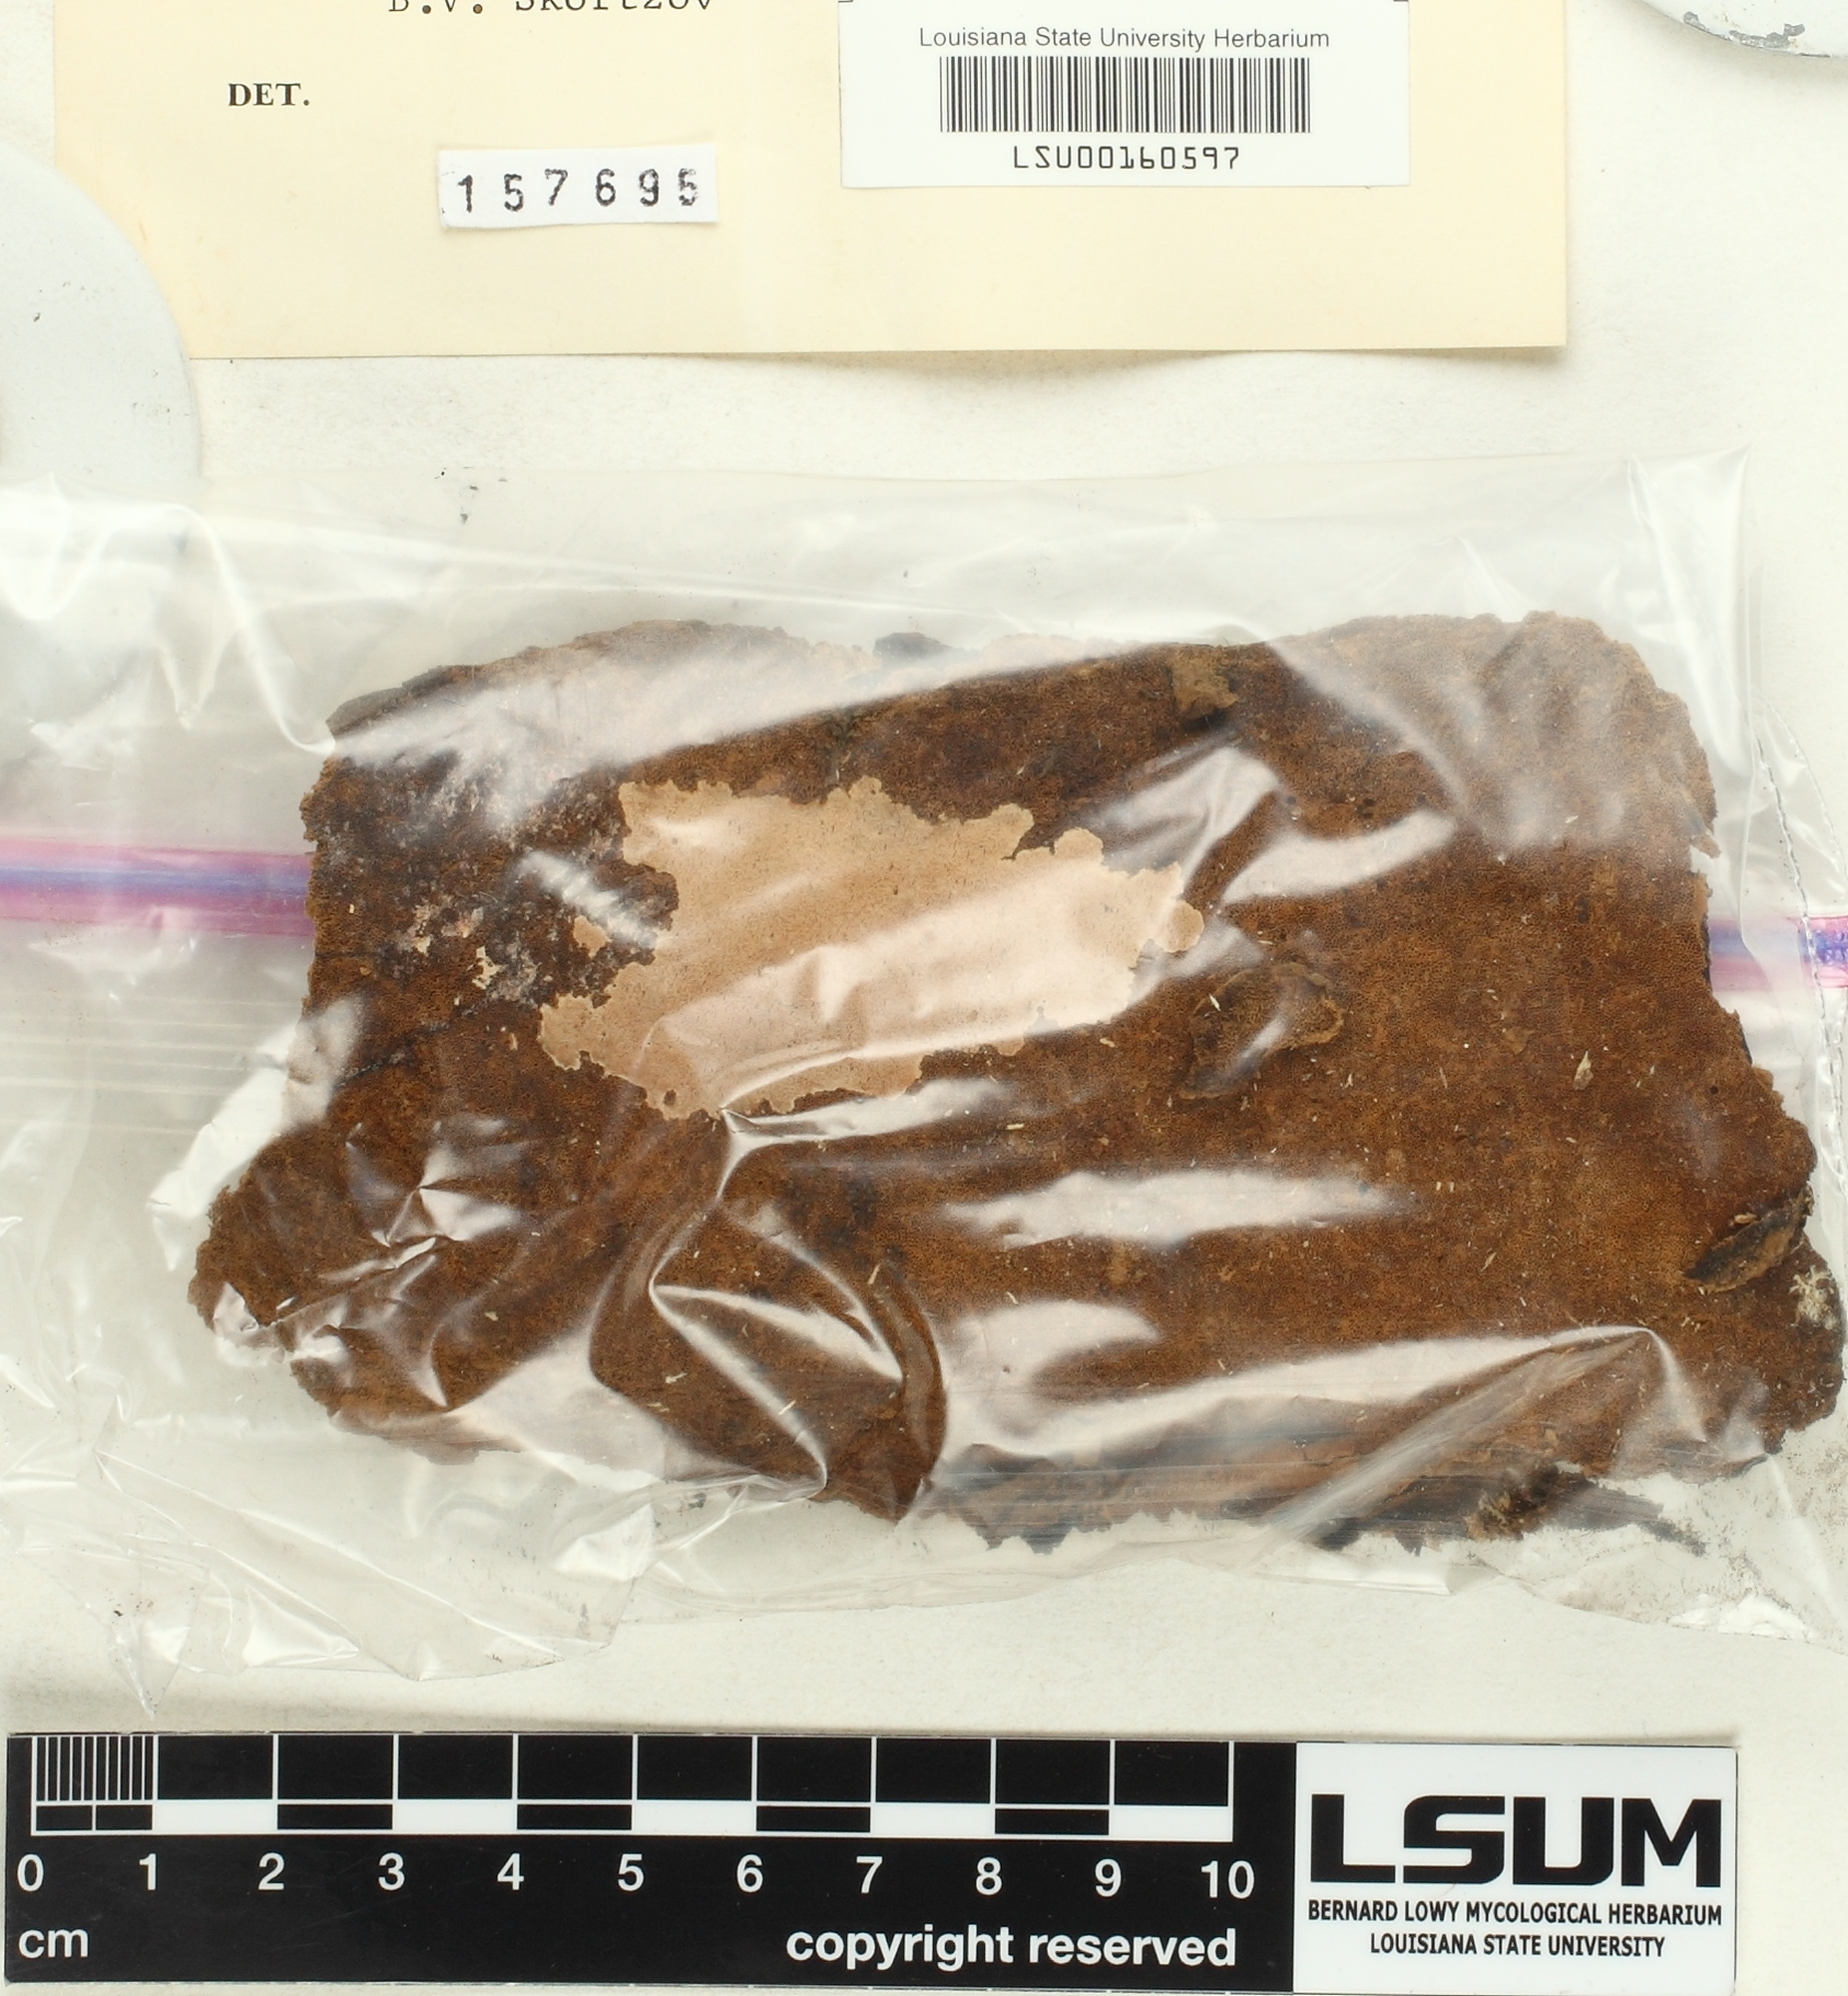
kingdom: Fungi
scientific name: Fungi
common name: Fungi
